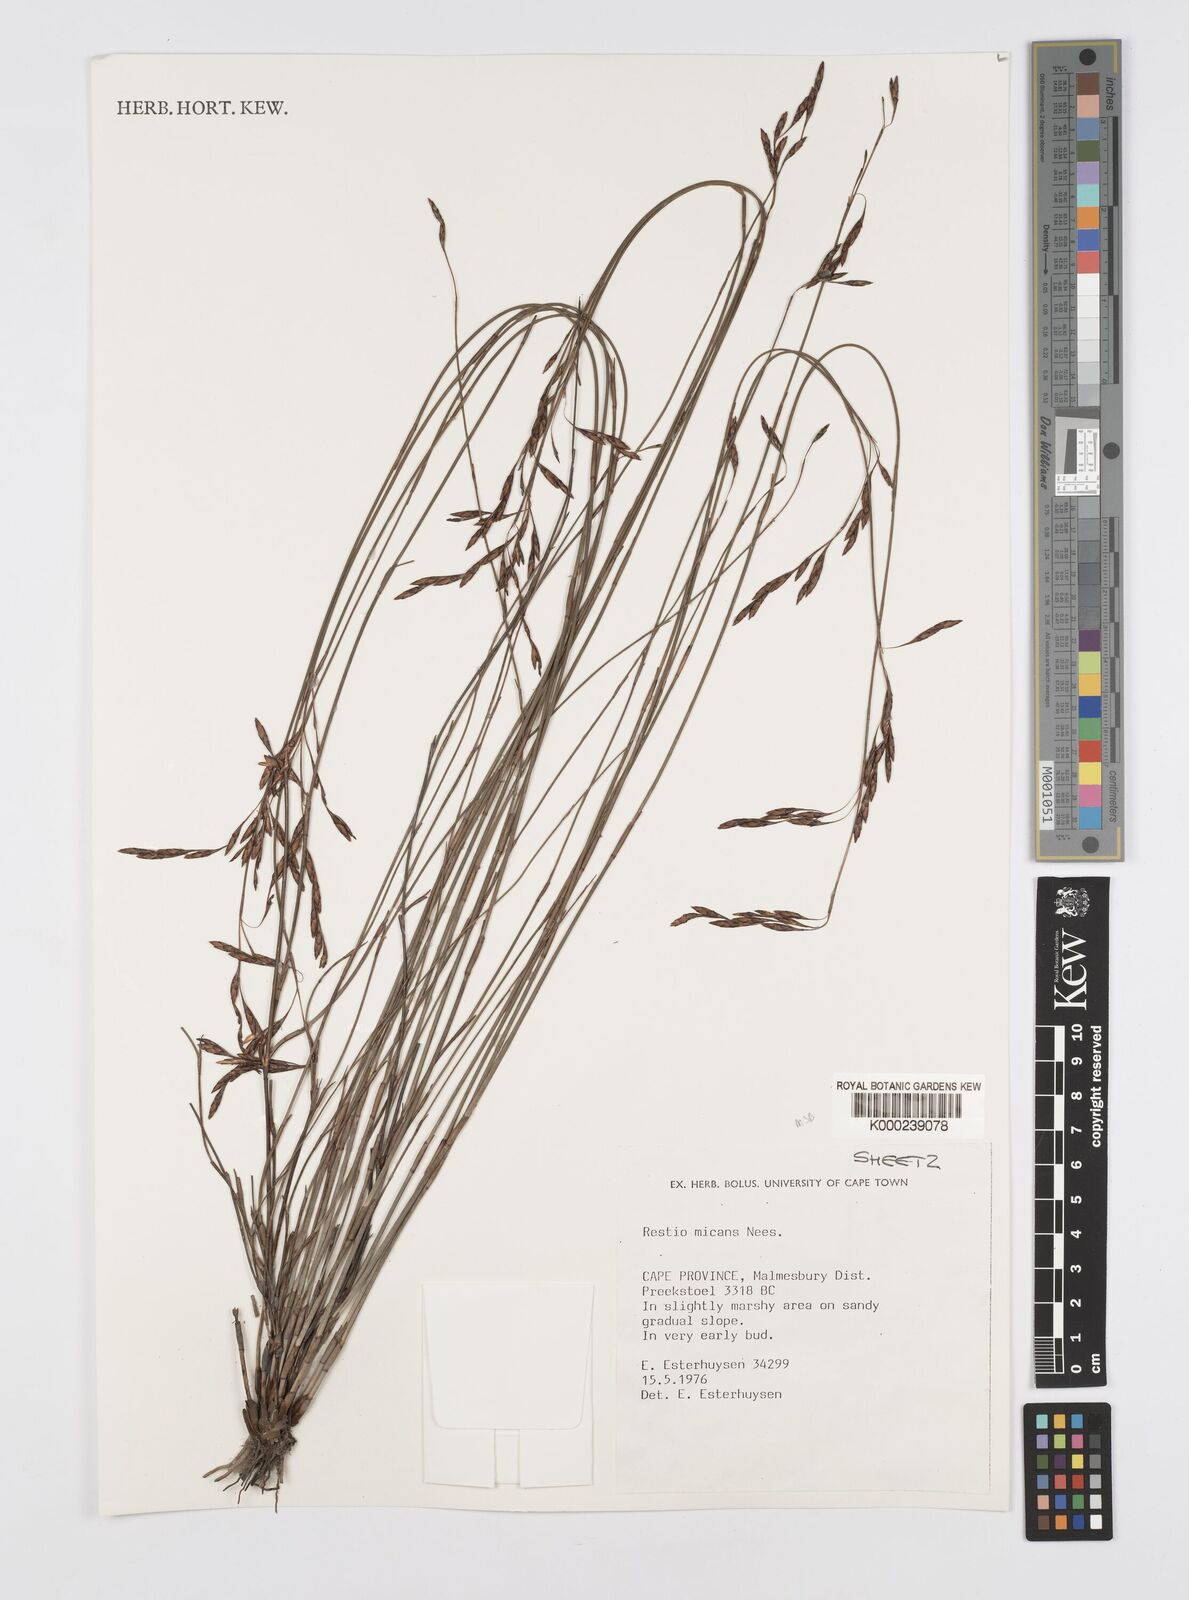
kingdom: Plantae
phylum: Tracheophyta
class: Liliopsida
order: Poales
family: Restionaceae
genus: Restio
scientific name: Restio micans
